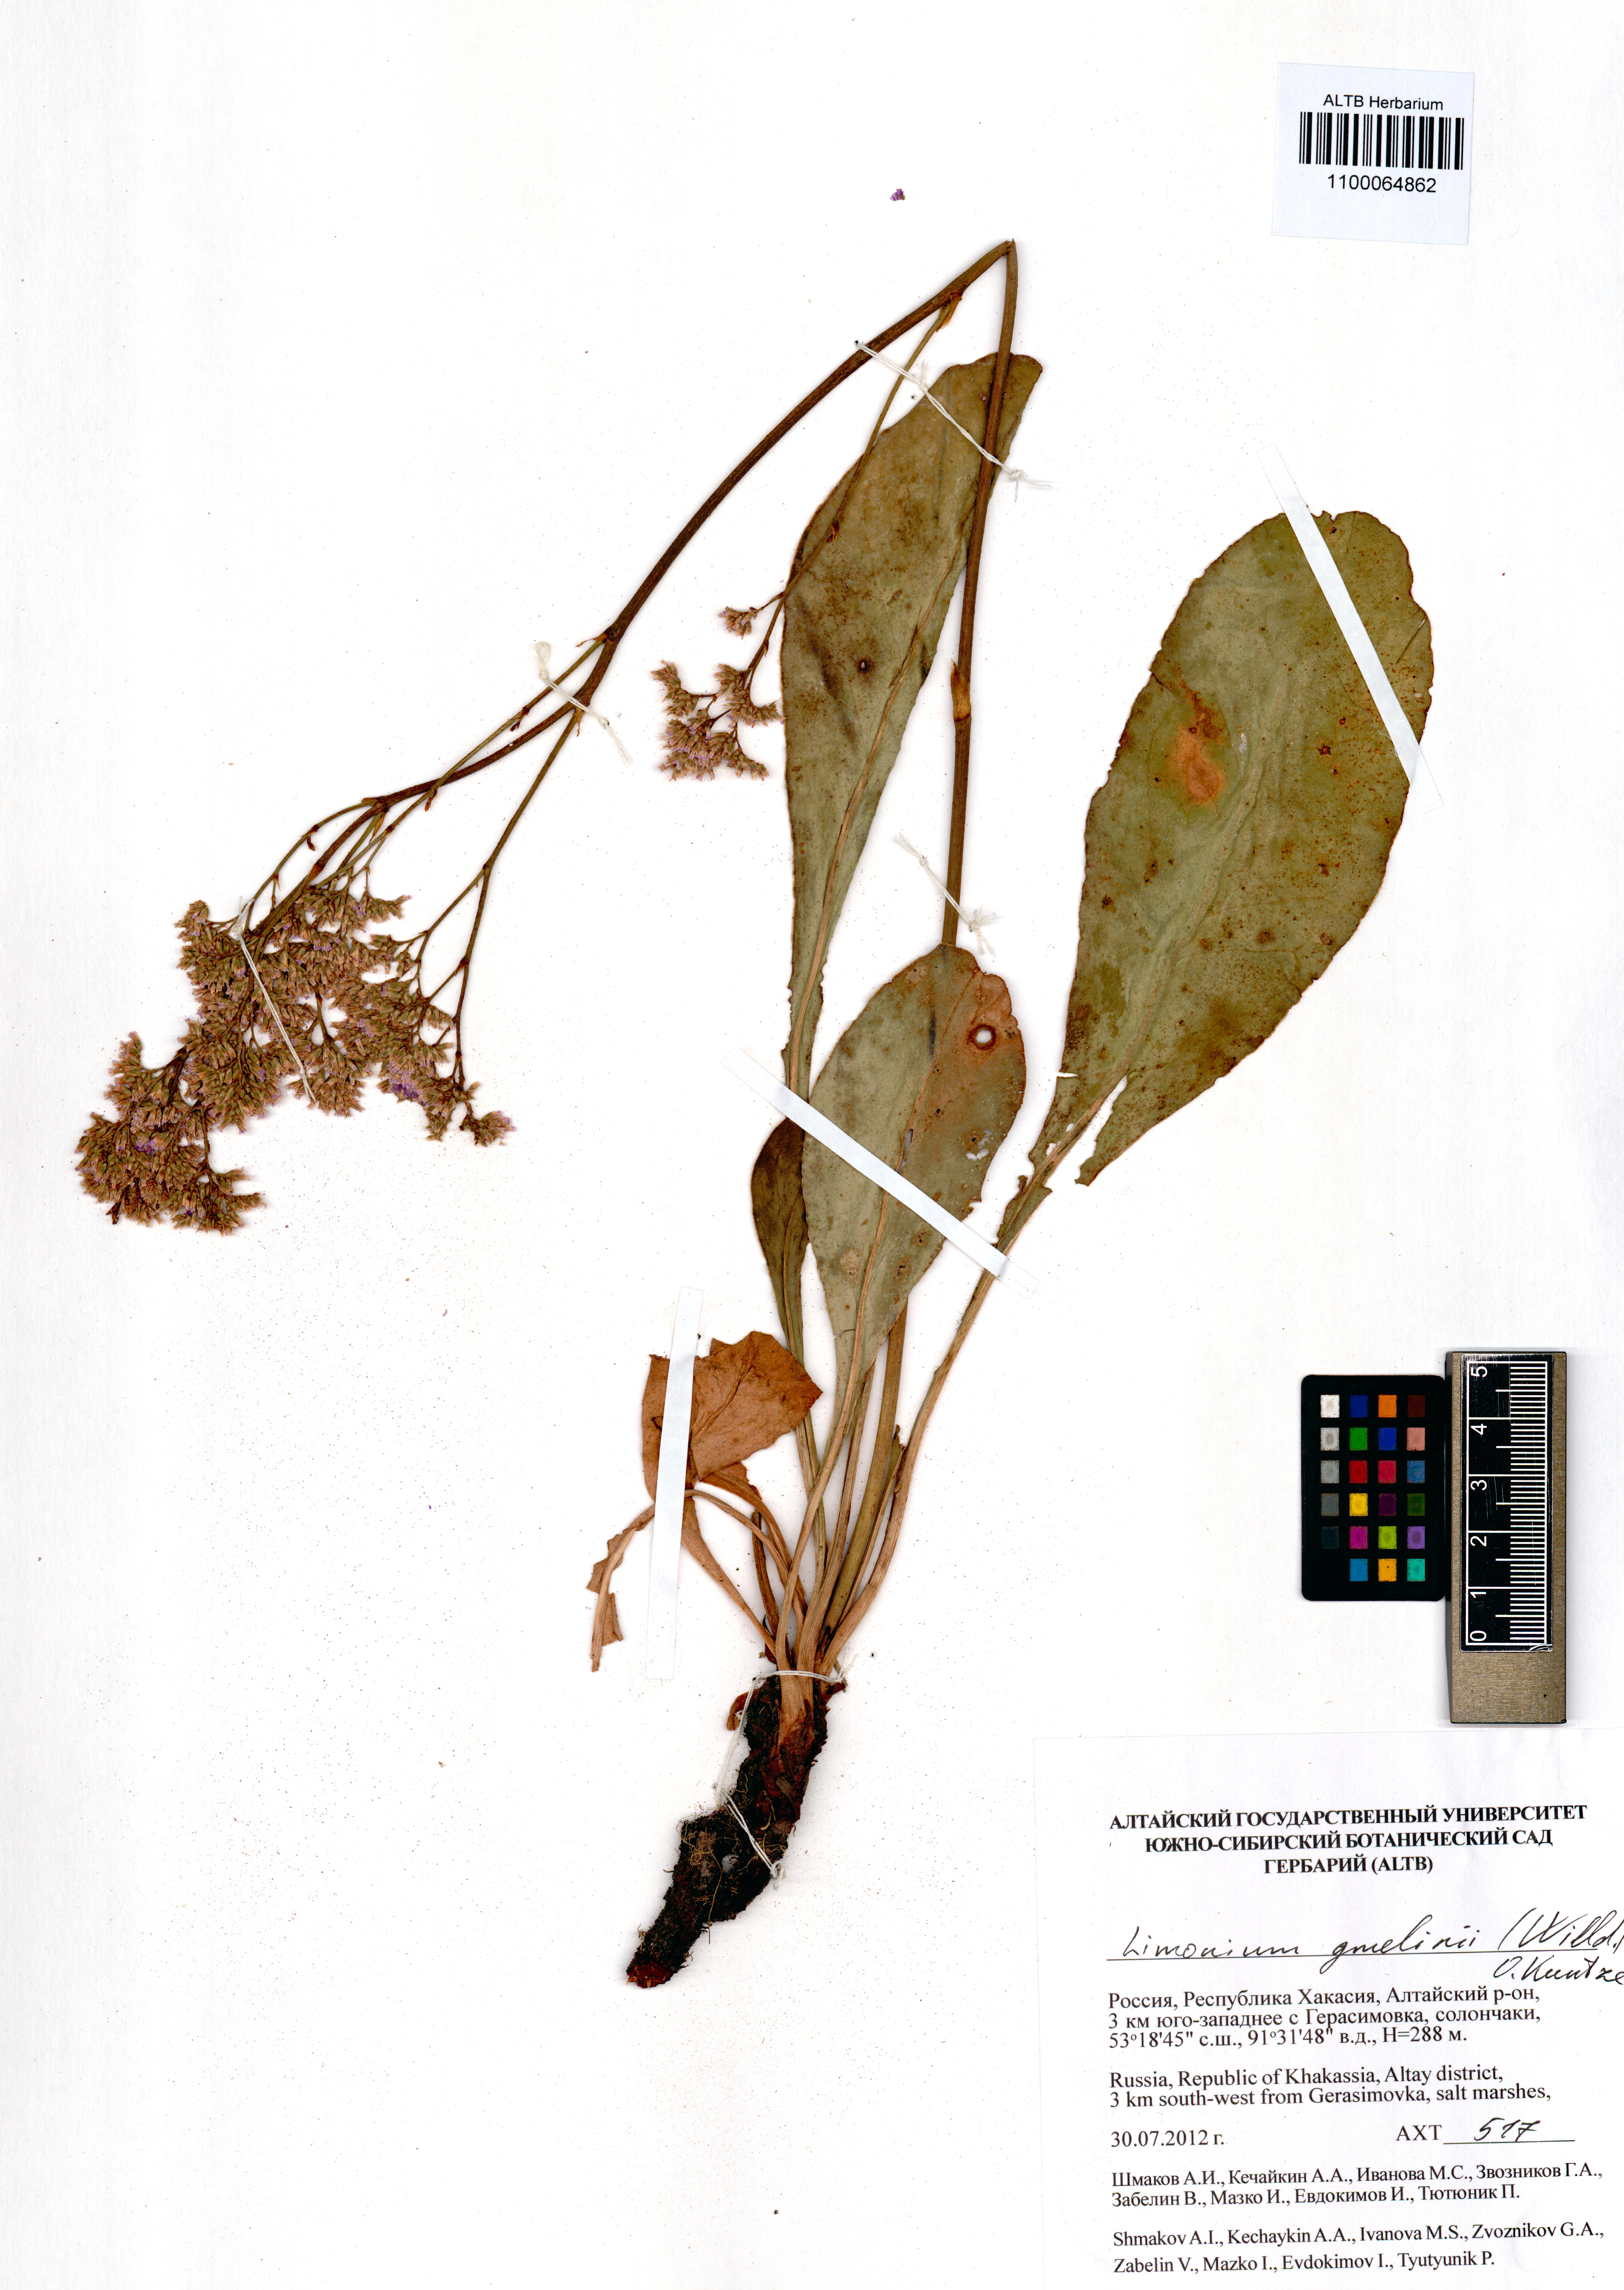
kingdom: Plantae
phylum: Tracheophyta
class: Magnoliopsida
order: Caryophyllales
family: Plumbaginaceae
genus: Limonium
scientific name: Limonium gmelini
